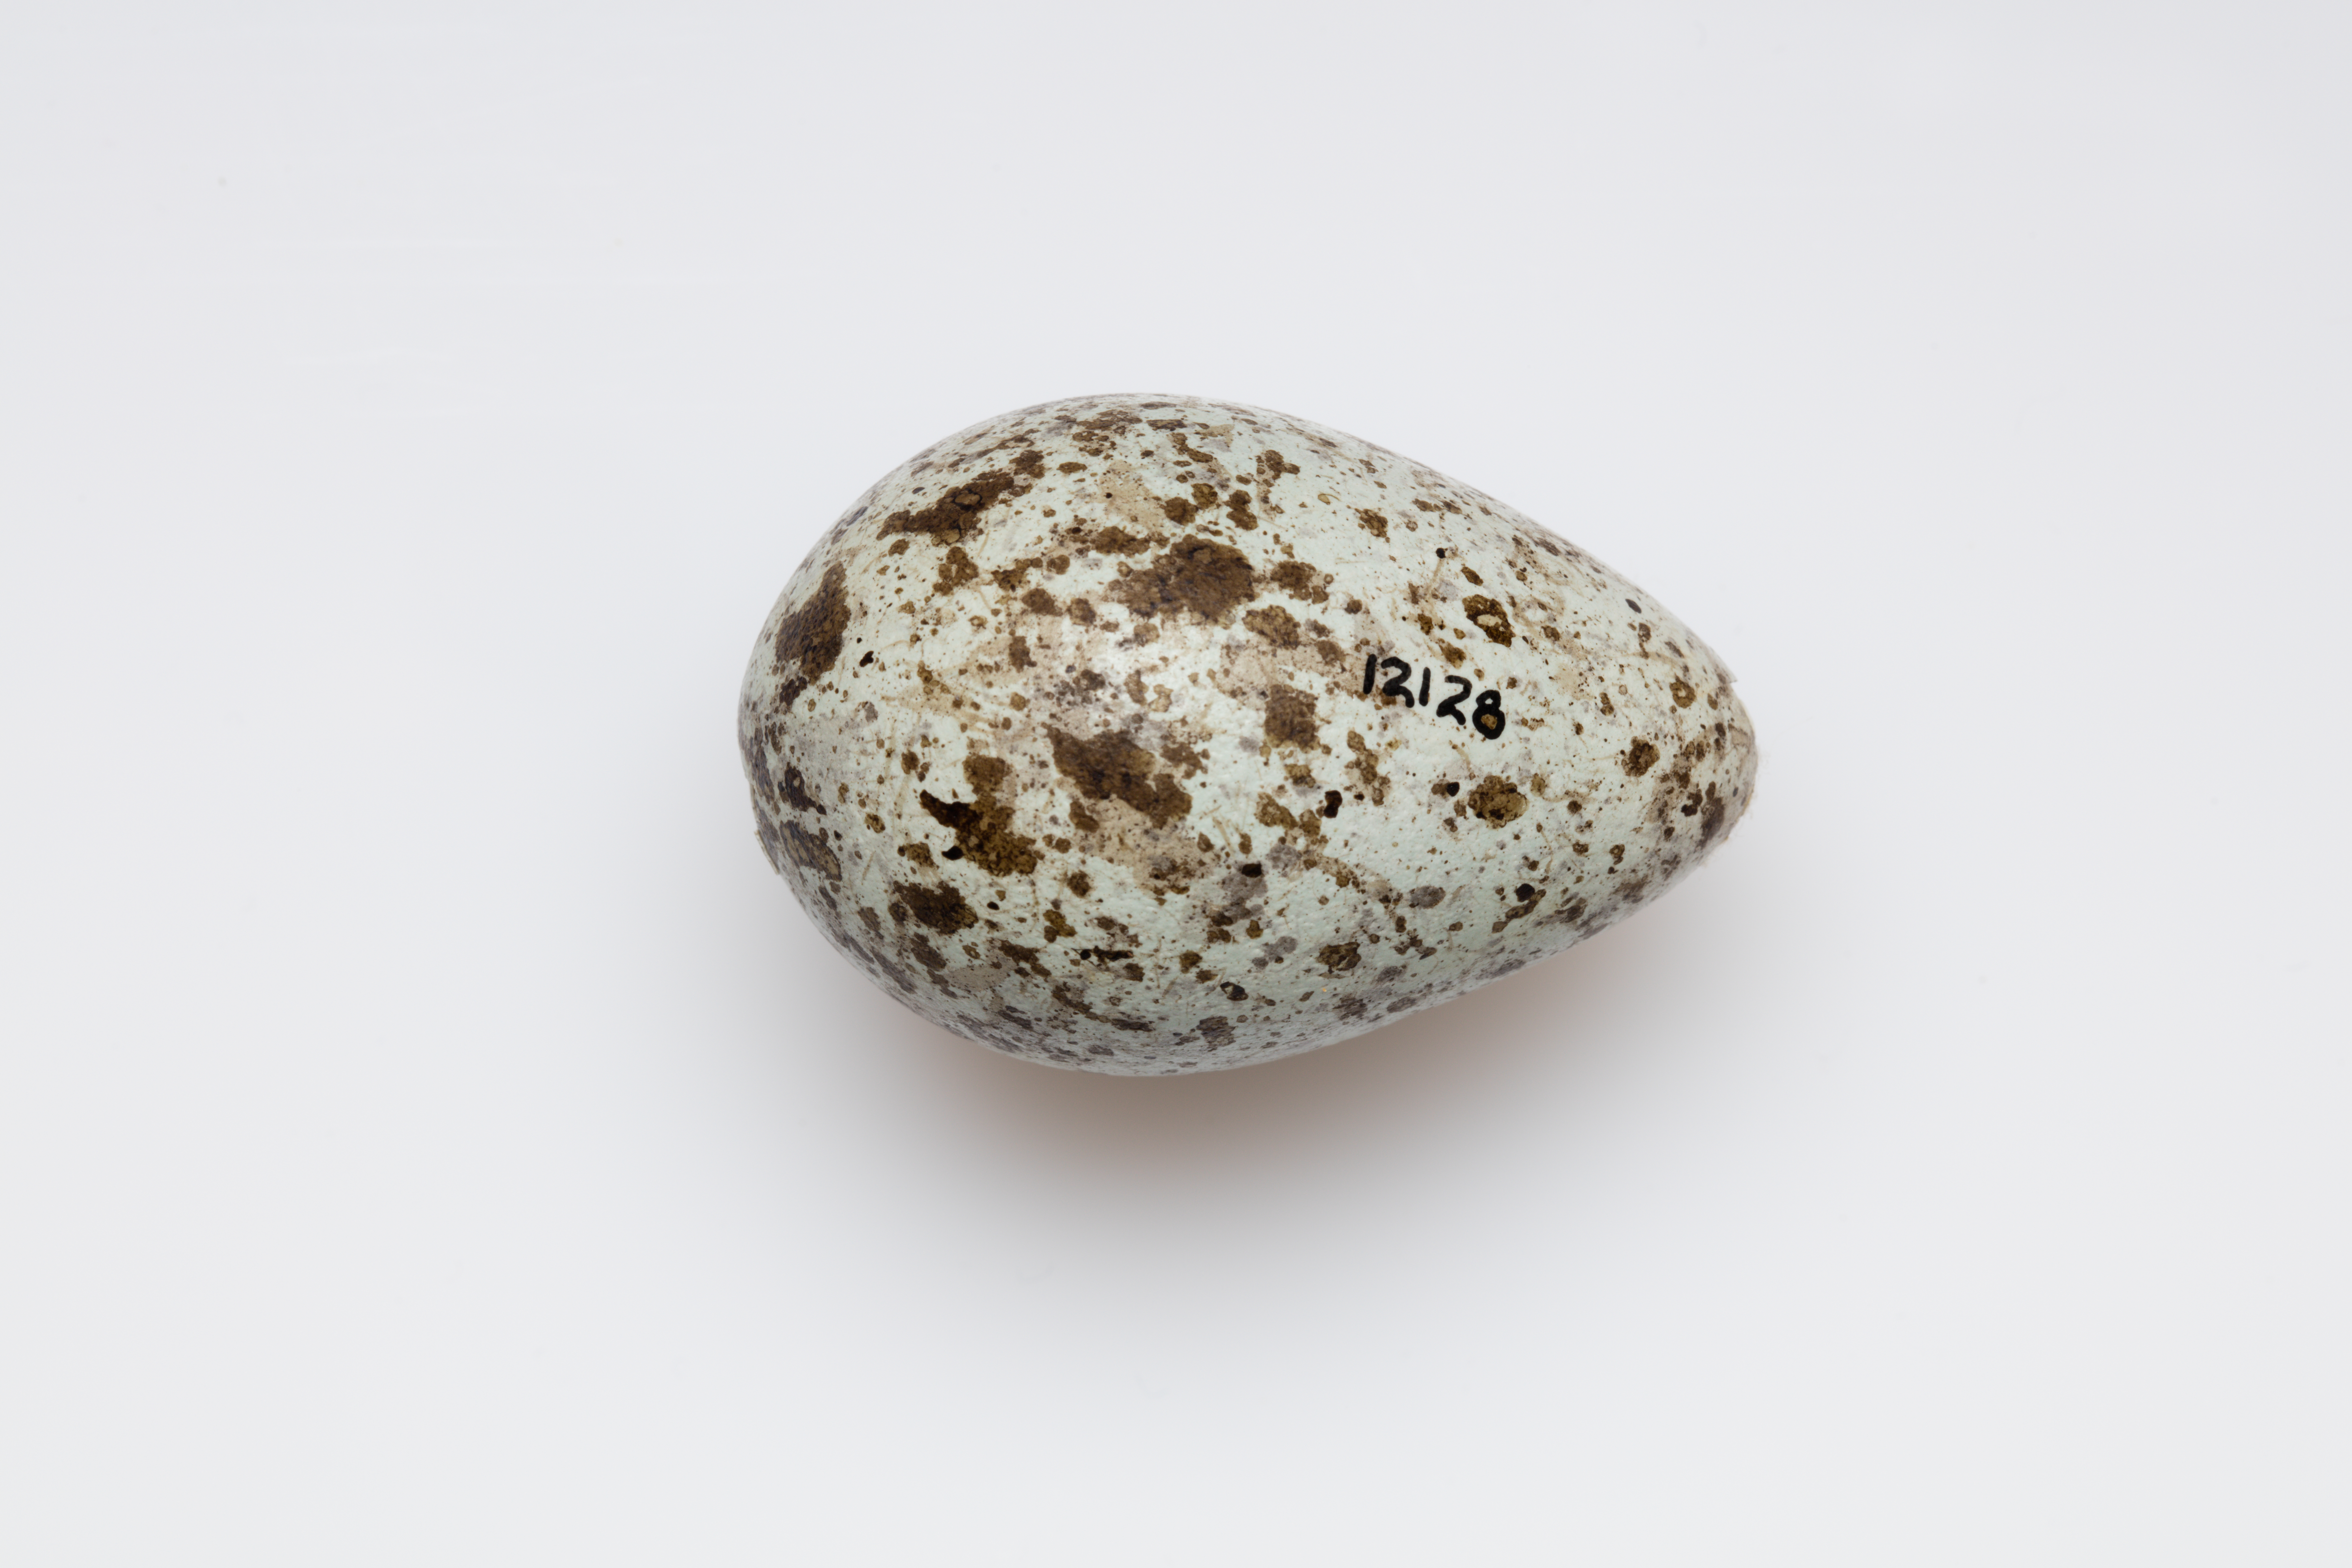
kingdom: Animalia
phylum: Chordata
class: Aves
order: Passeriformes
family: Corvidae
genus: Corvus
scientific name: Corvus orru
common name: Torresian crow
